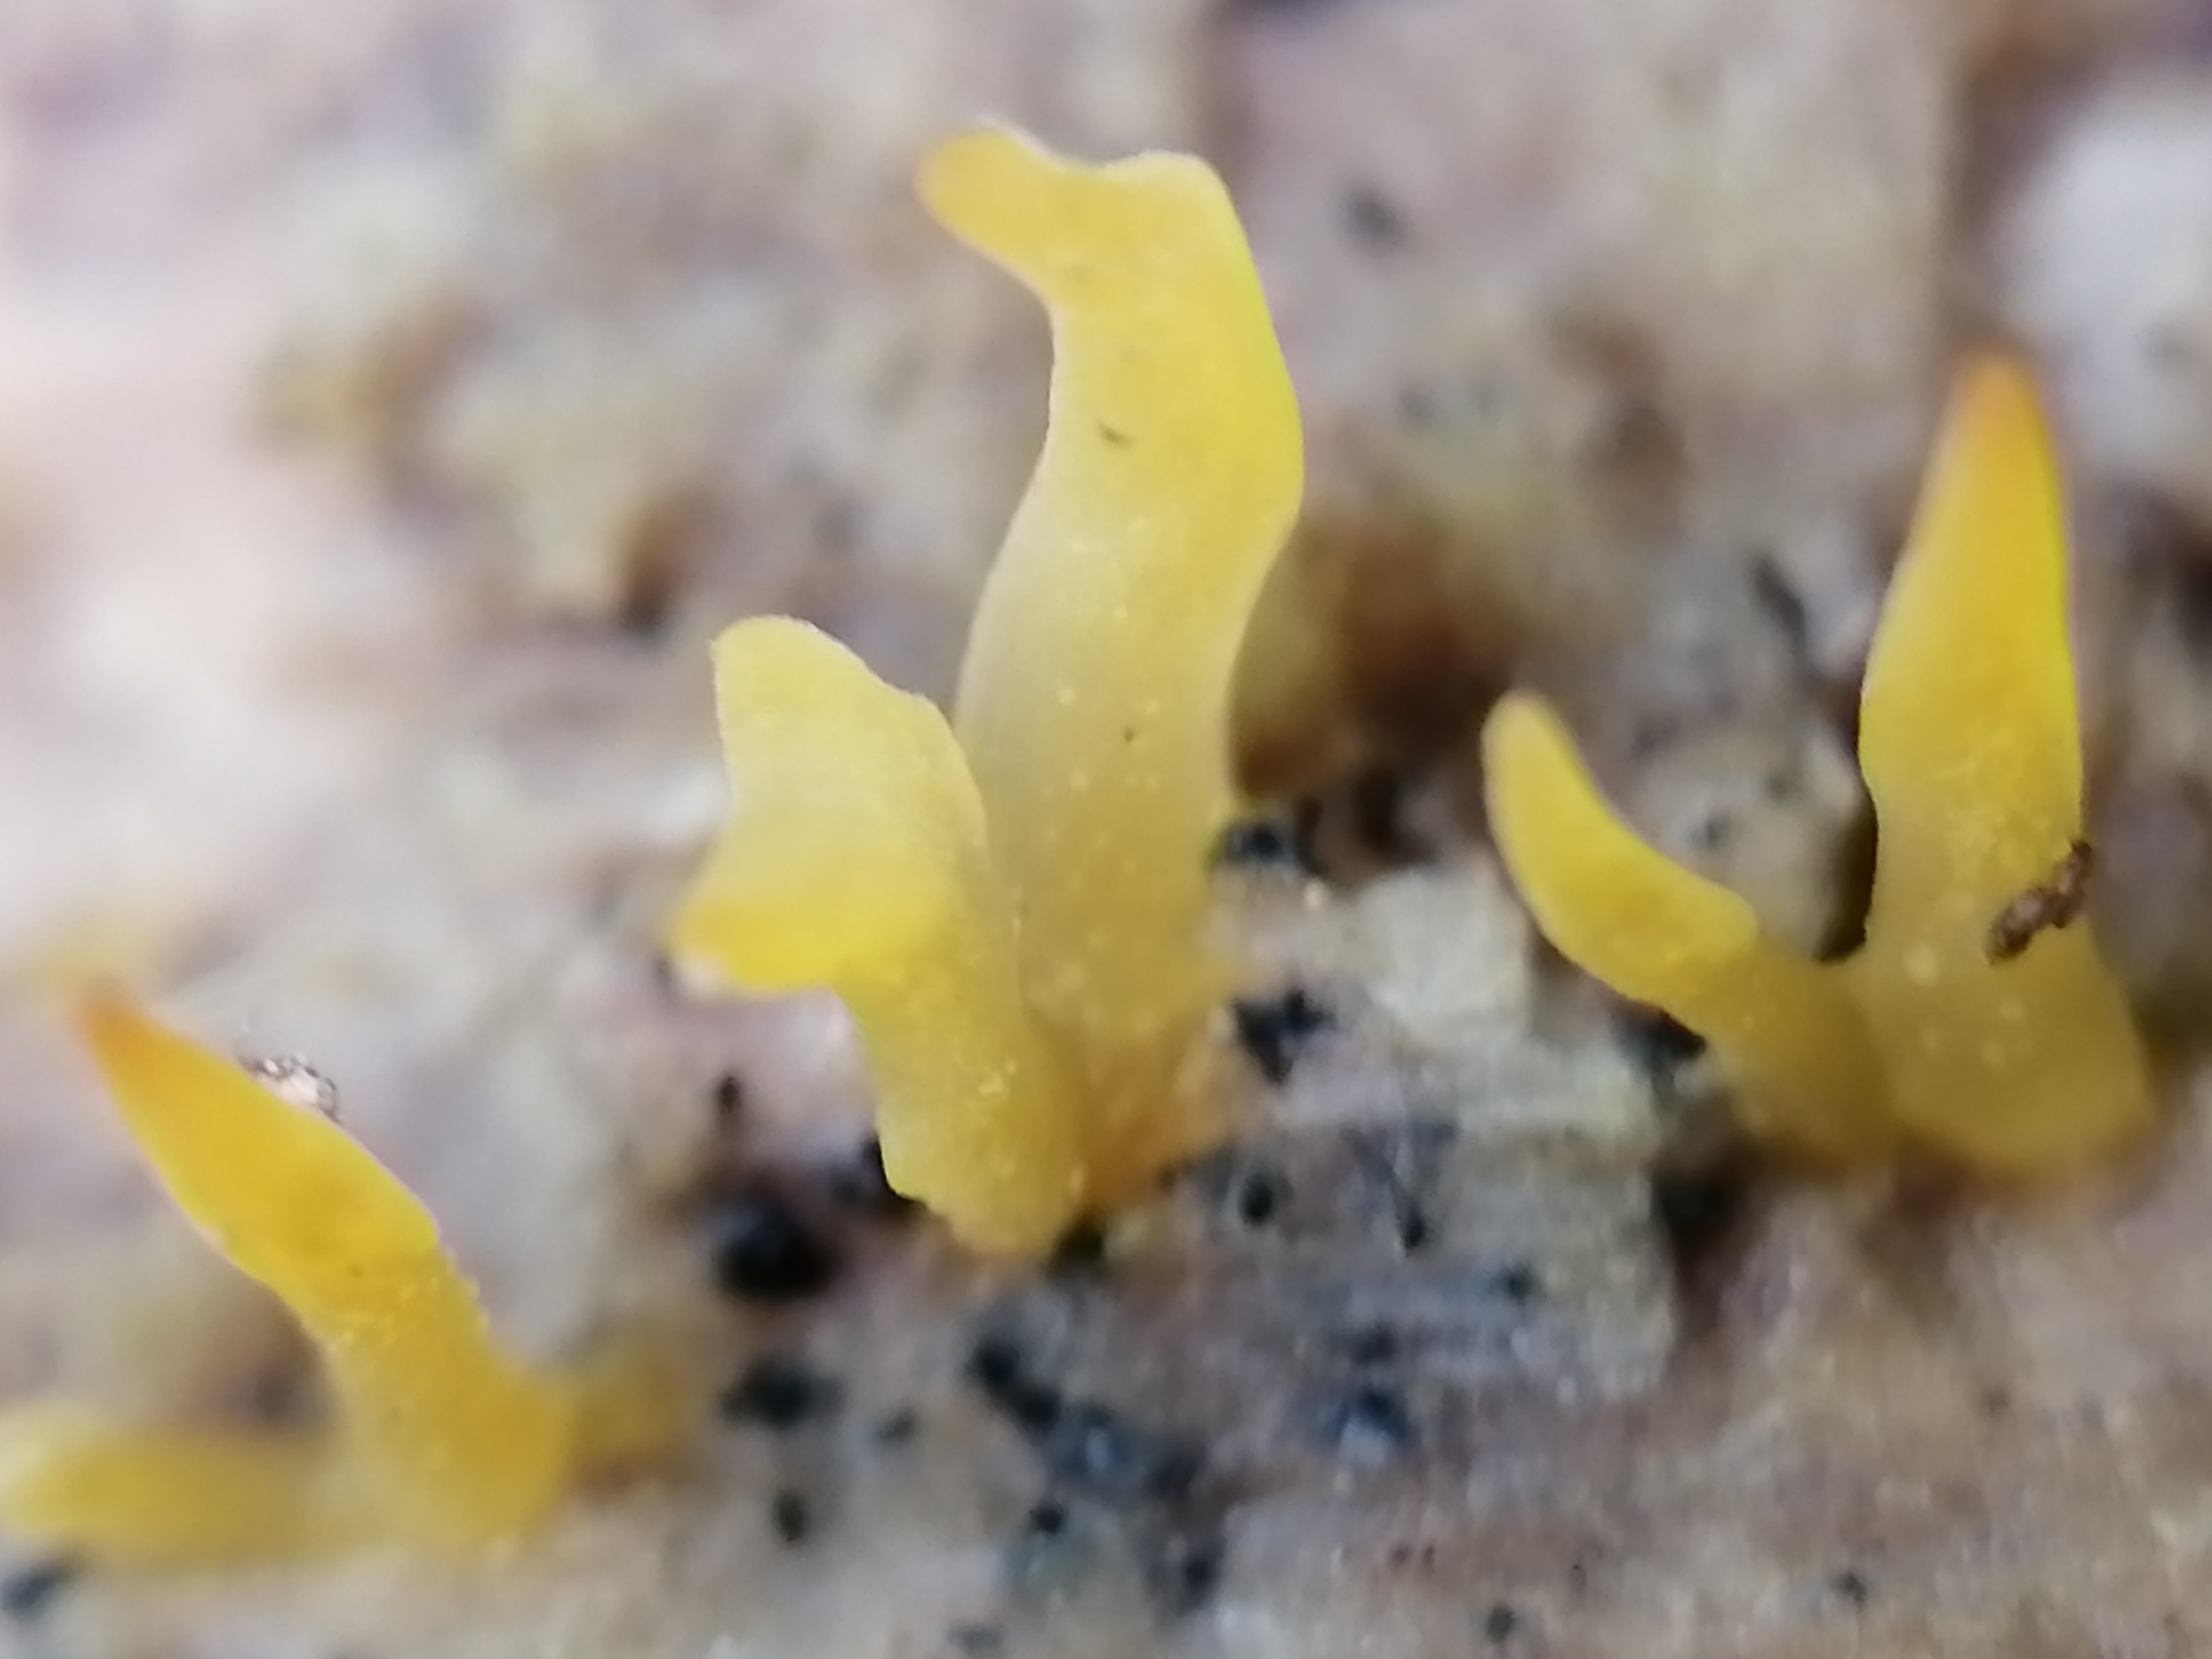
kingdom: Fungi
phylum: Basidiomycota
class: Dacrymycetes
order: Dacrymycetales
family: Dacrymycetaceae
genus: Calocera
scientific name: Calocera cornea
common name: liden guldgaffel
